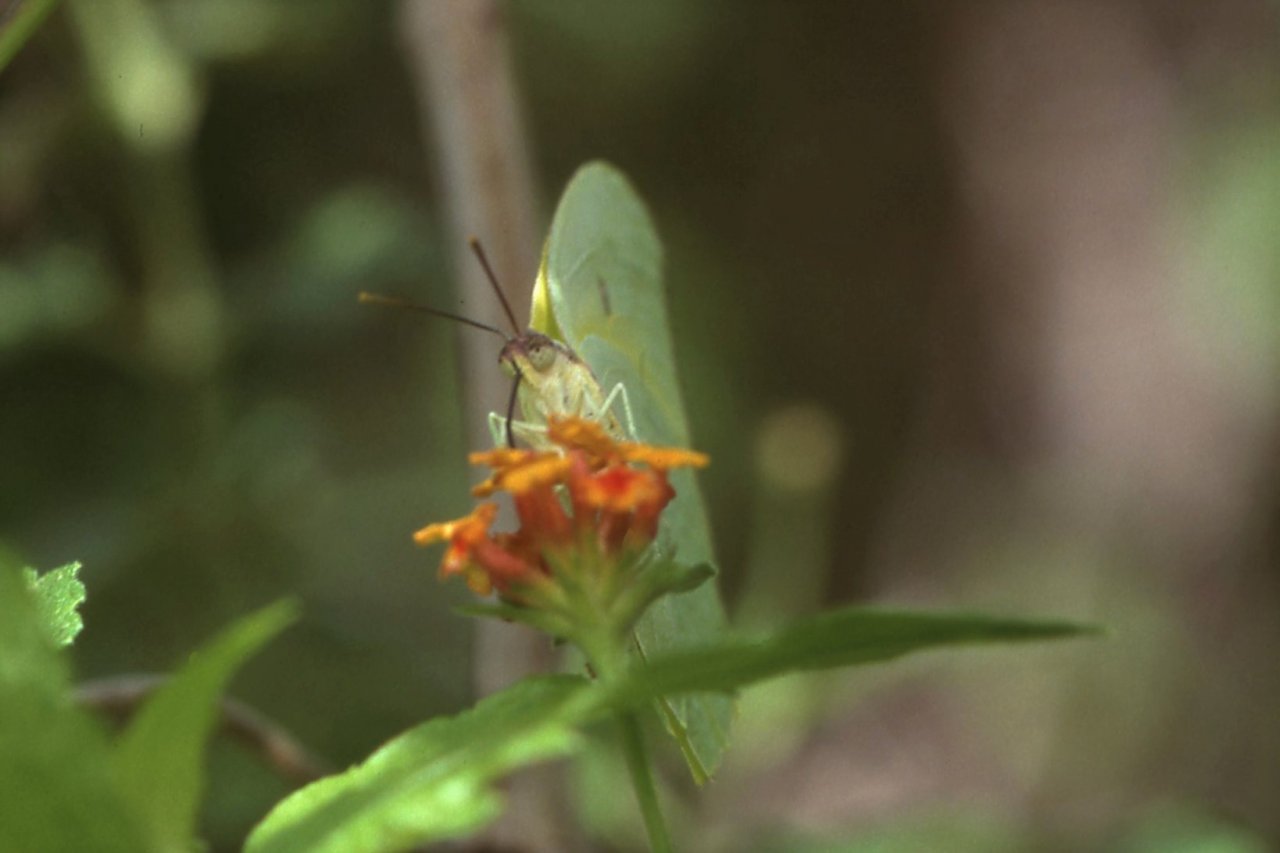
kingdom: Animalia
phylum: Arthropoda
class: Insecta
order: Lepidoptera
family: Pieridae
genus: Anteos
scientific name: Anteos maerula
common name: Yellow Angled-Sulphur
